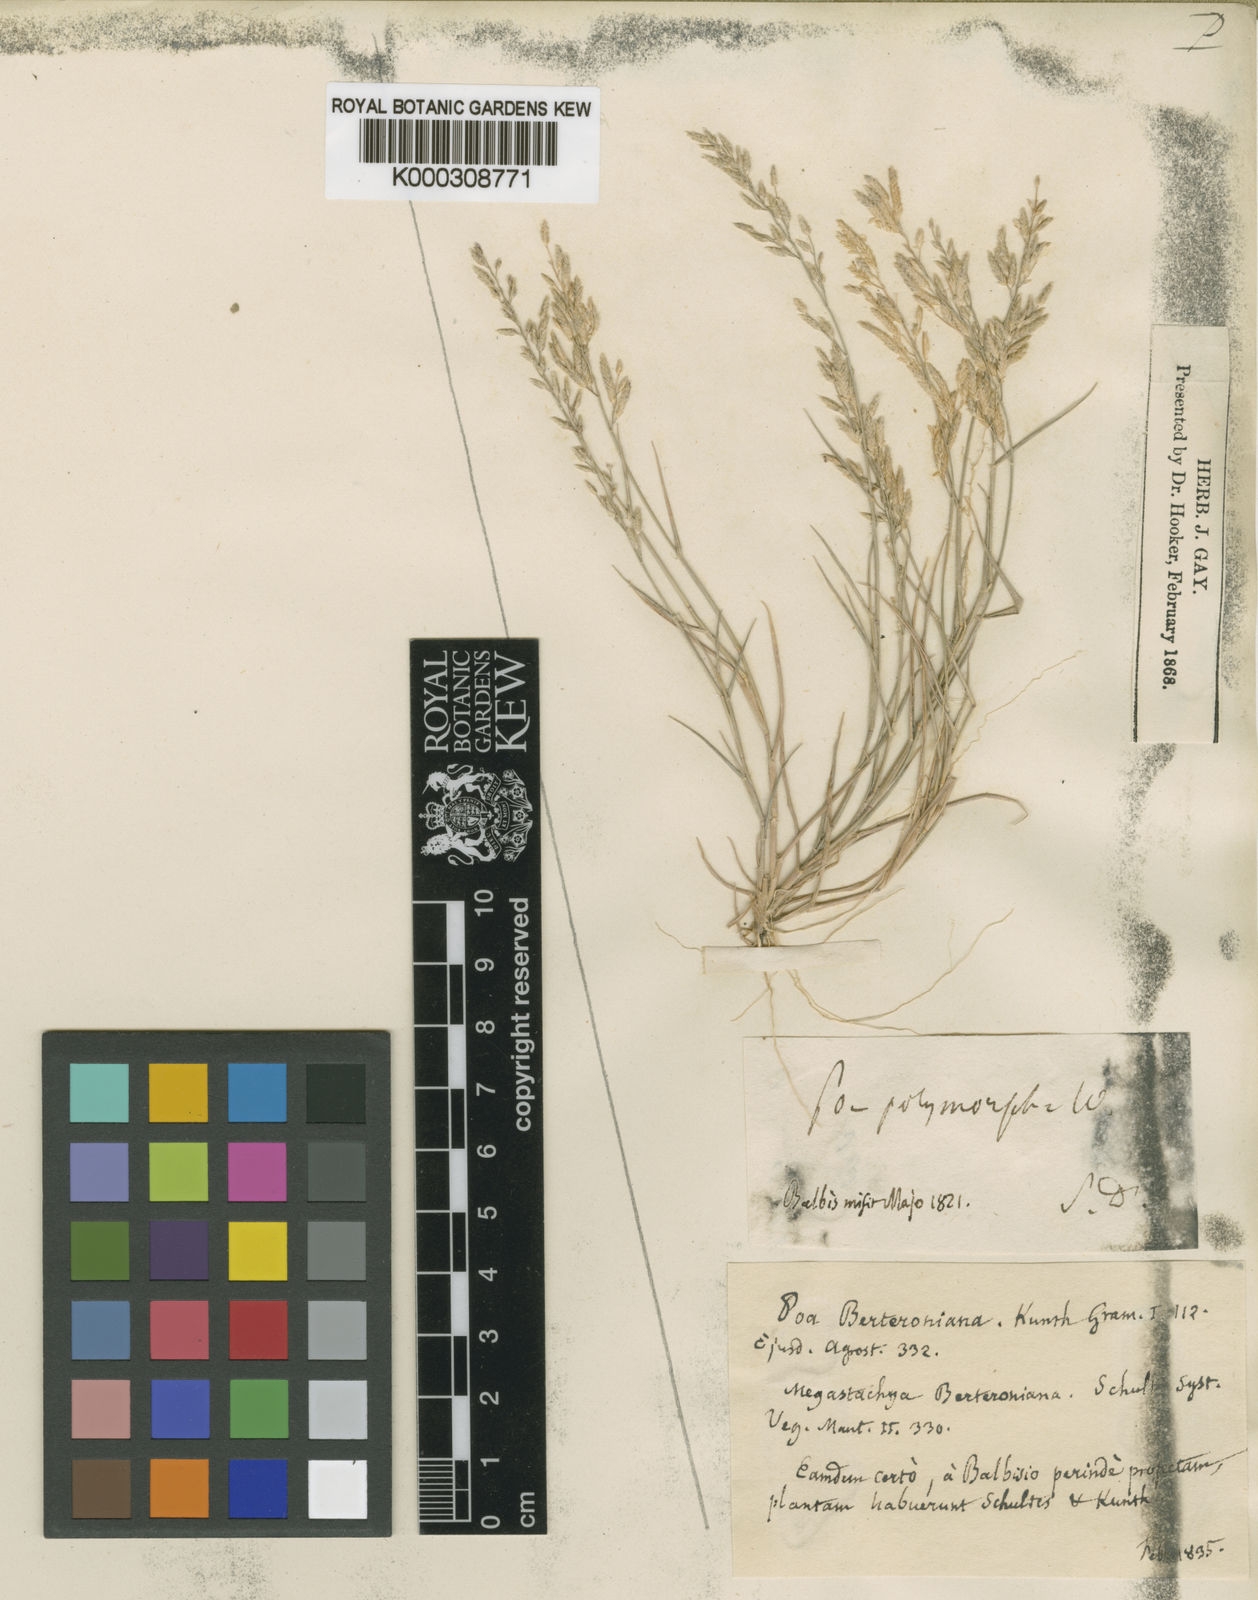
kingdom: Plantae
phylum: Tracheophyta
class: Liliopsida
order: Poales
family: Poaceae
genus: Eragrostis
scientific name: Eragrostis berteroniana
